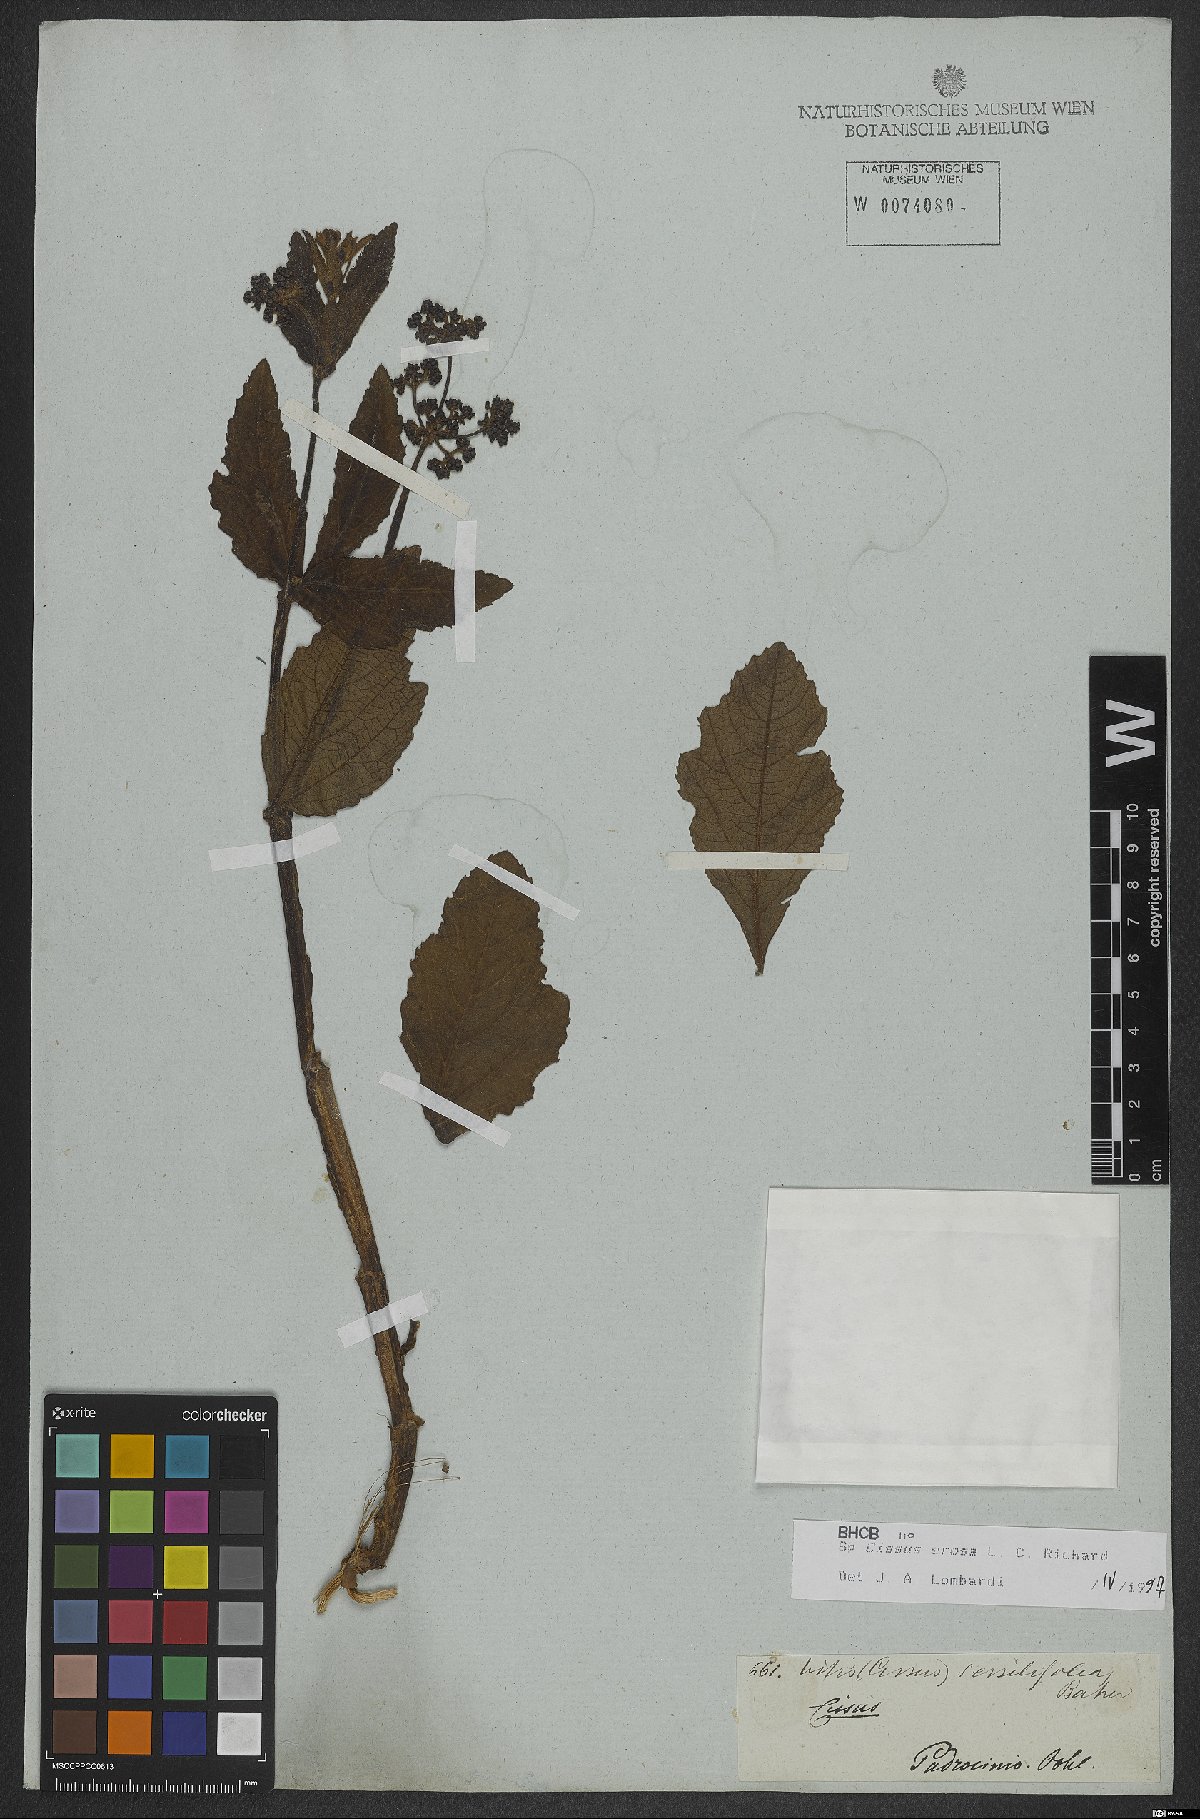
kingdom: Plantae
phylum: Tracheophyta
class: Magnoliopsida
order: Vitales
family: Vitaceae
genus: Cissus
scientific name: Cissus erosa
